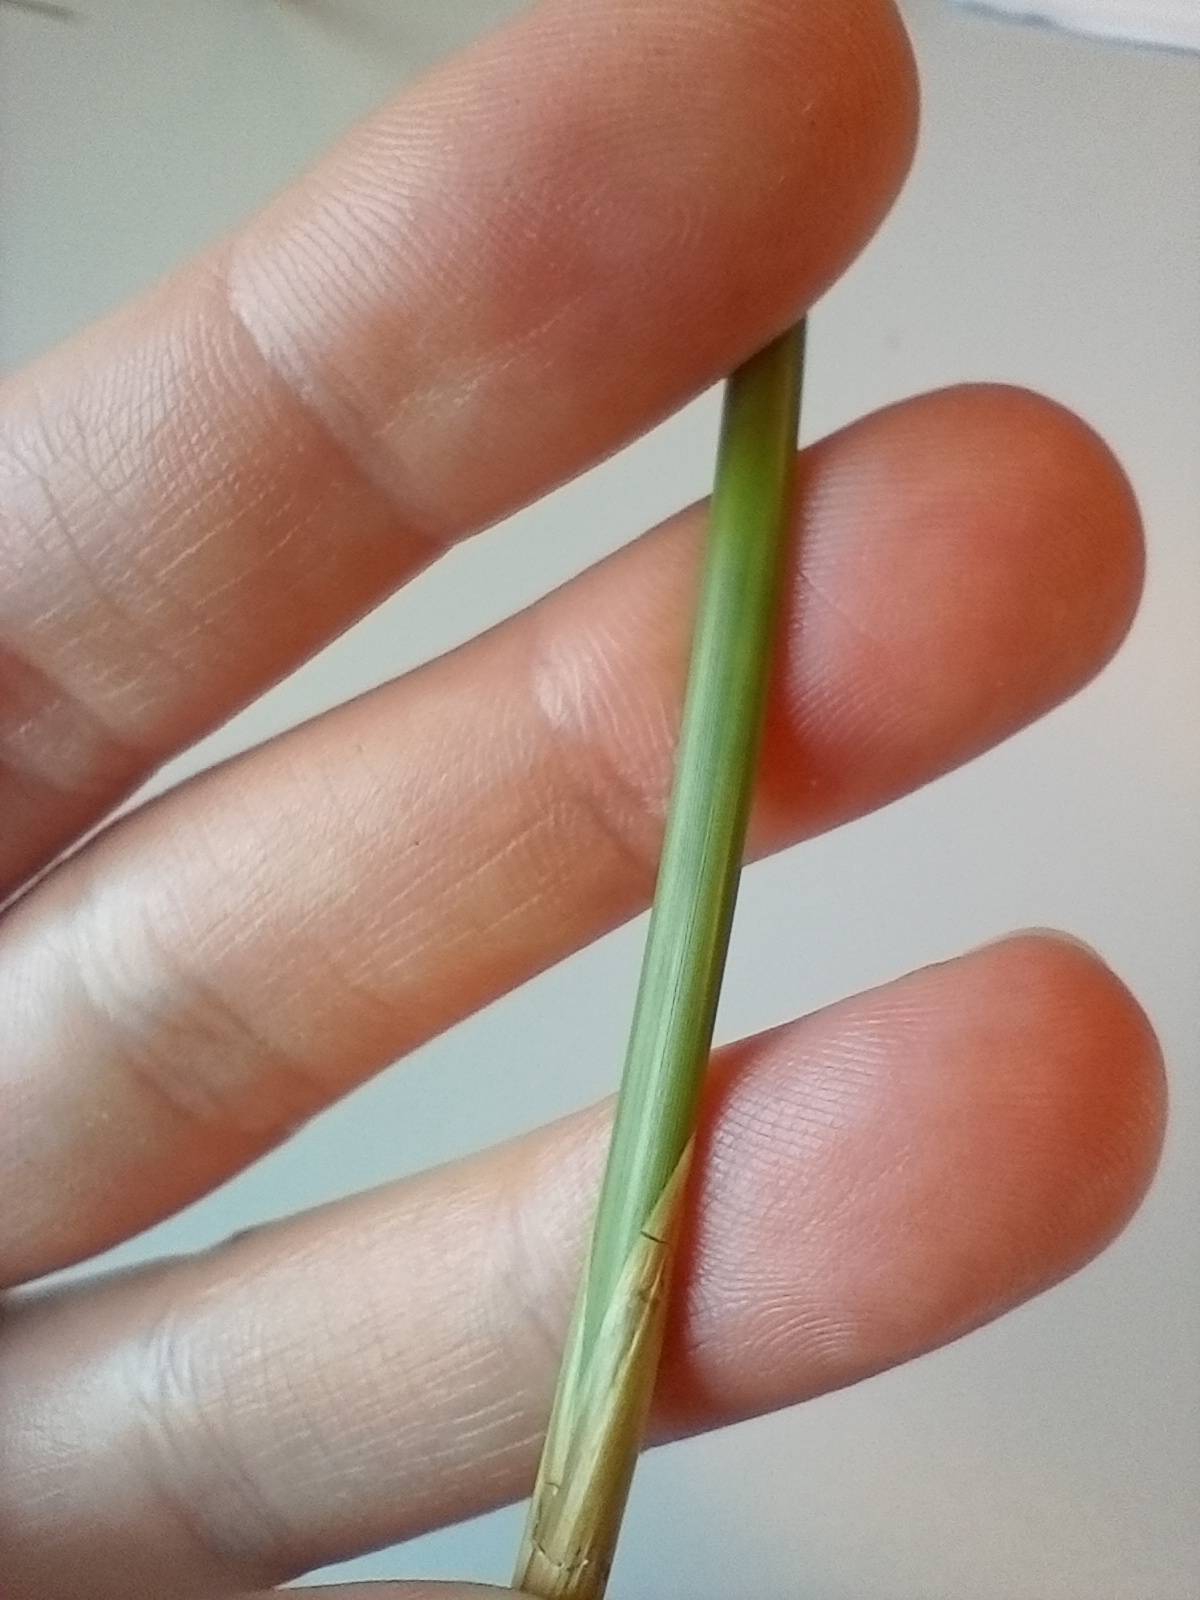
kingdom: Plantae
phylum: Tracheophyta
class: Liliopsida
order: Poales
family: Juncaceae
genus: Juncus
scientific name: Juncus effusus
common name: Lyse-siv
